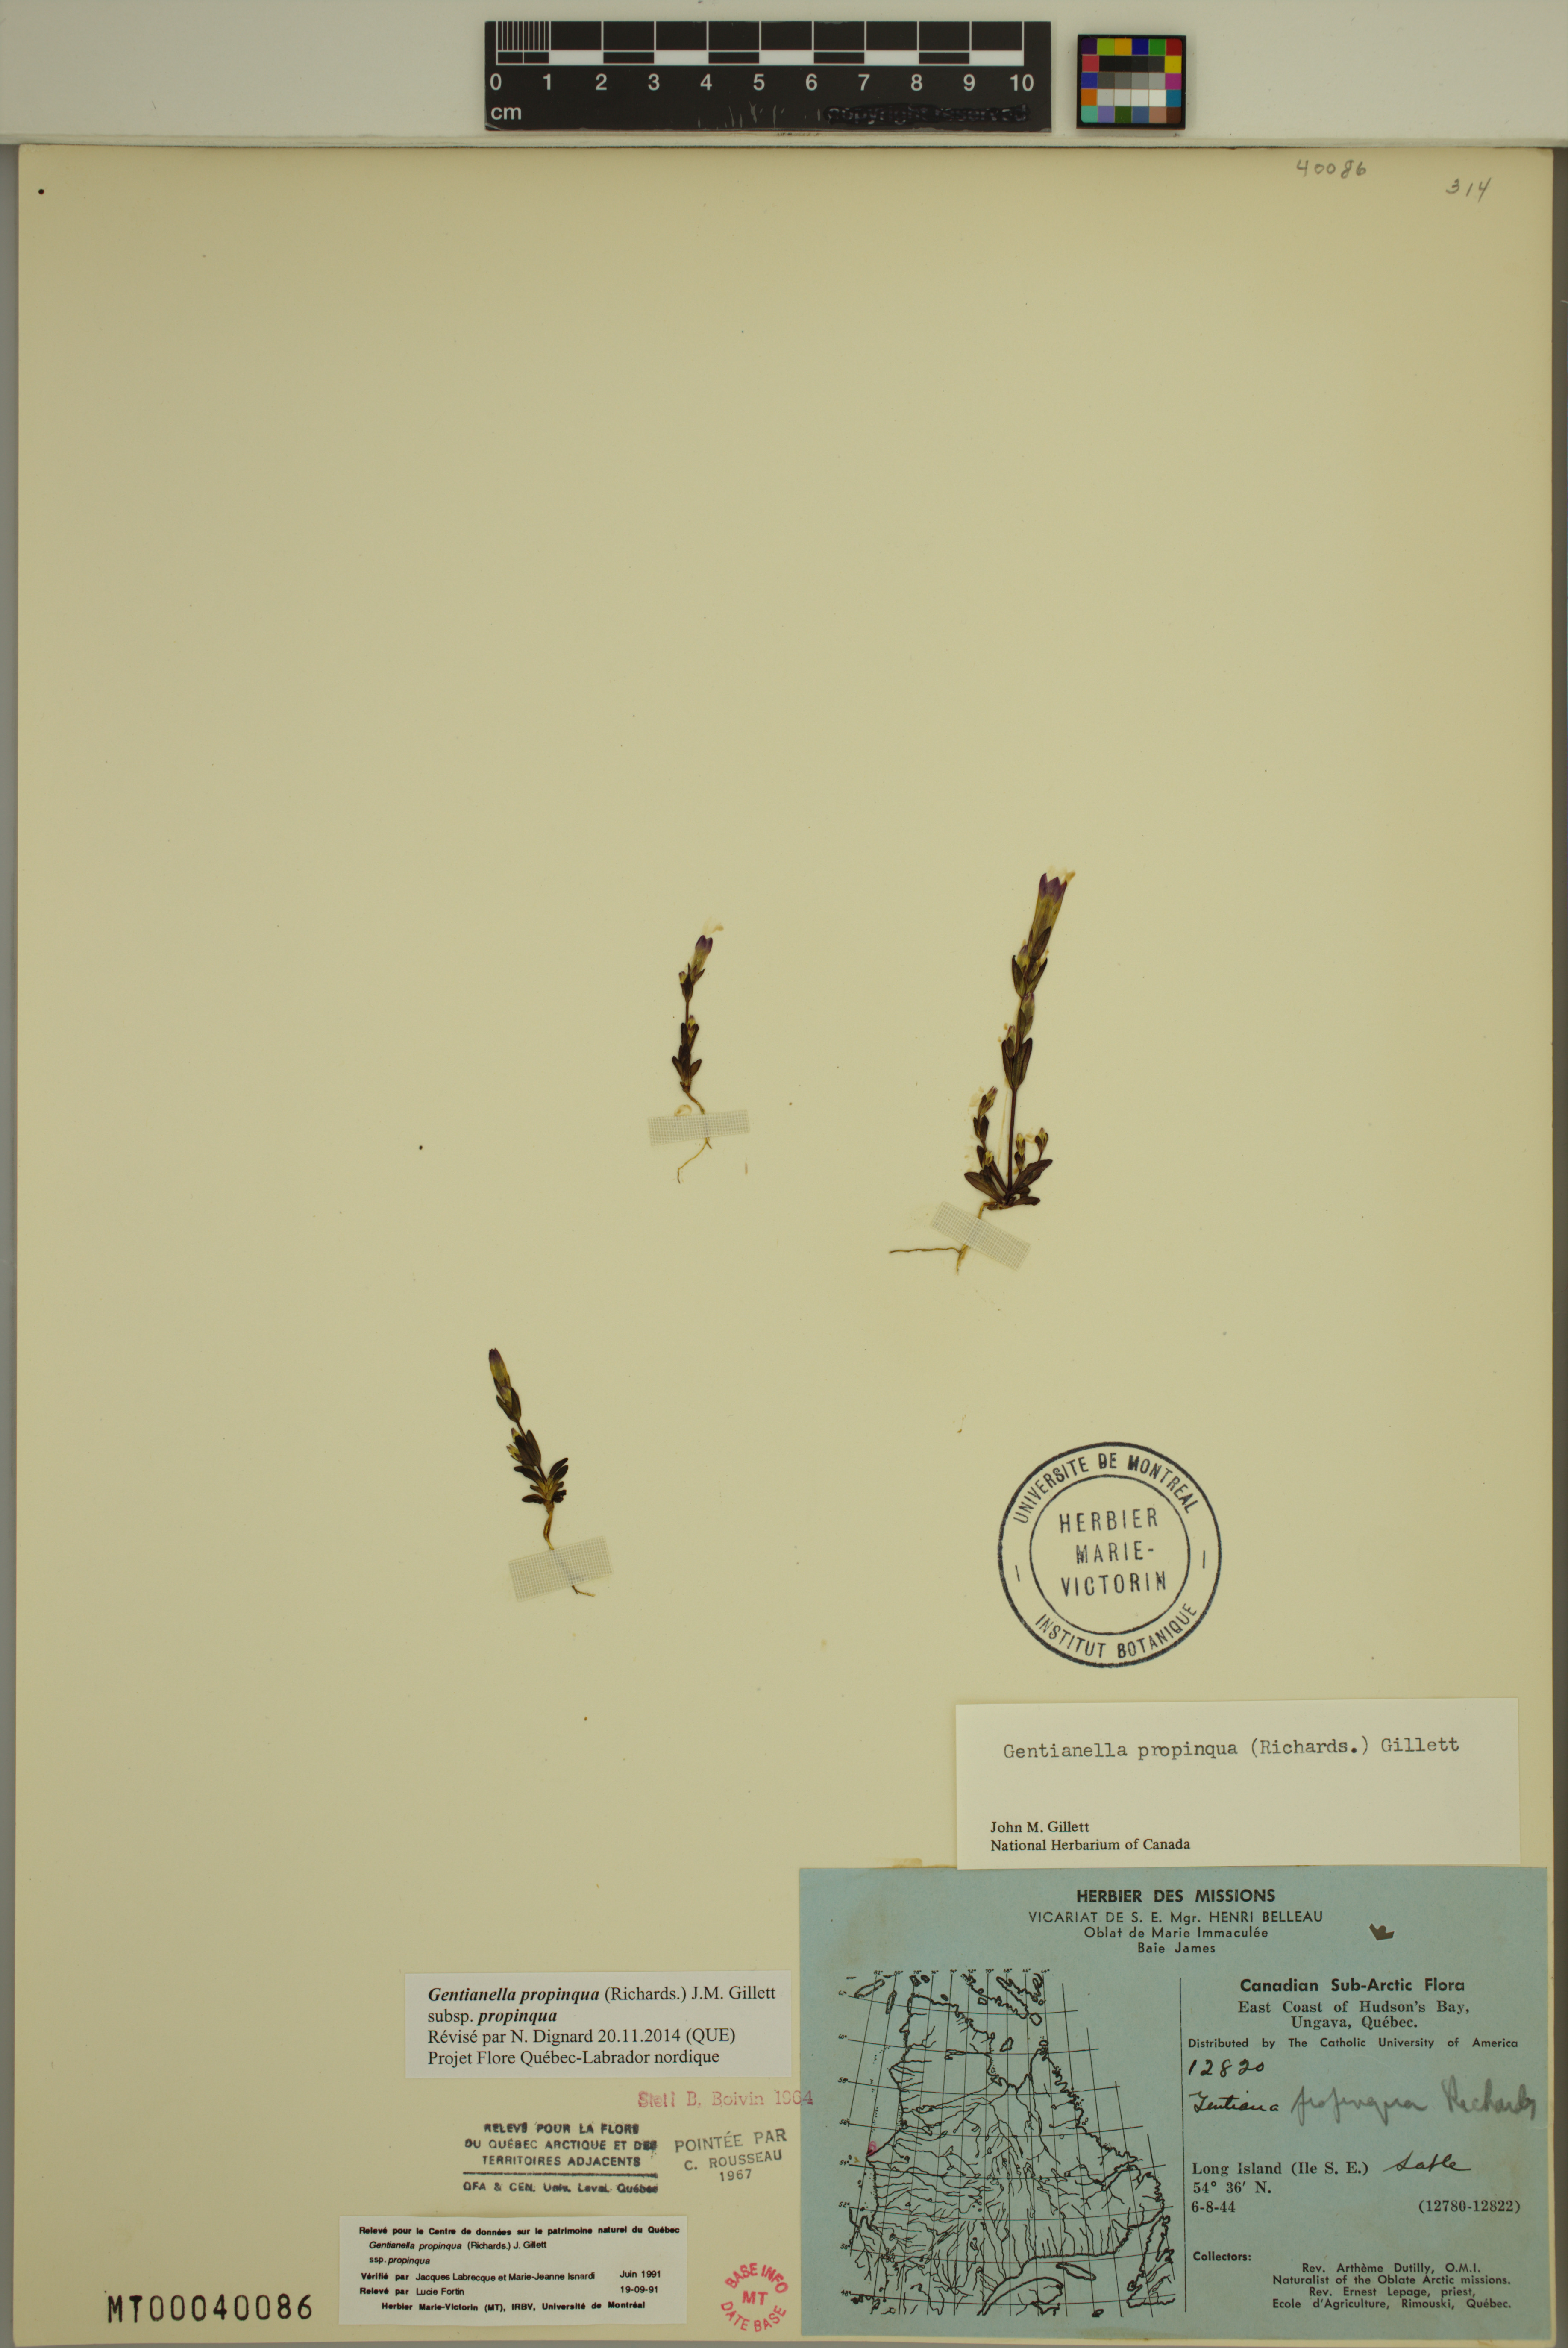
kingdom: Plantae
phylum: Tracheophyta
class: Magnoliopsida
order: Gentianales
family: Gentianaceae
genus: Gentianella
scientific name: Gentianella propinqua
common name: Four-parted dwarf-gentian
